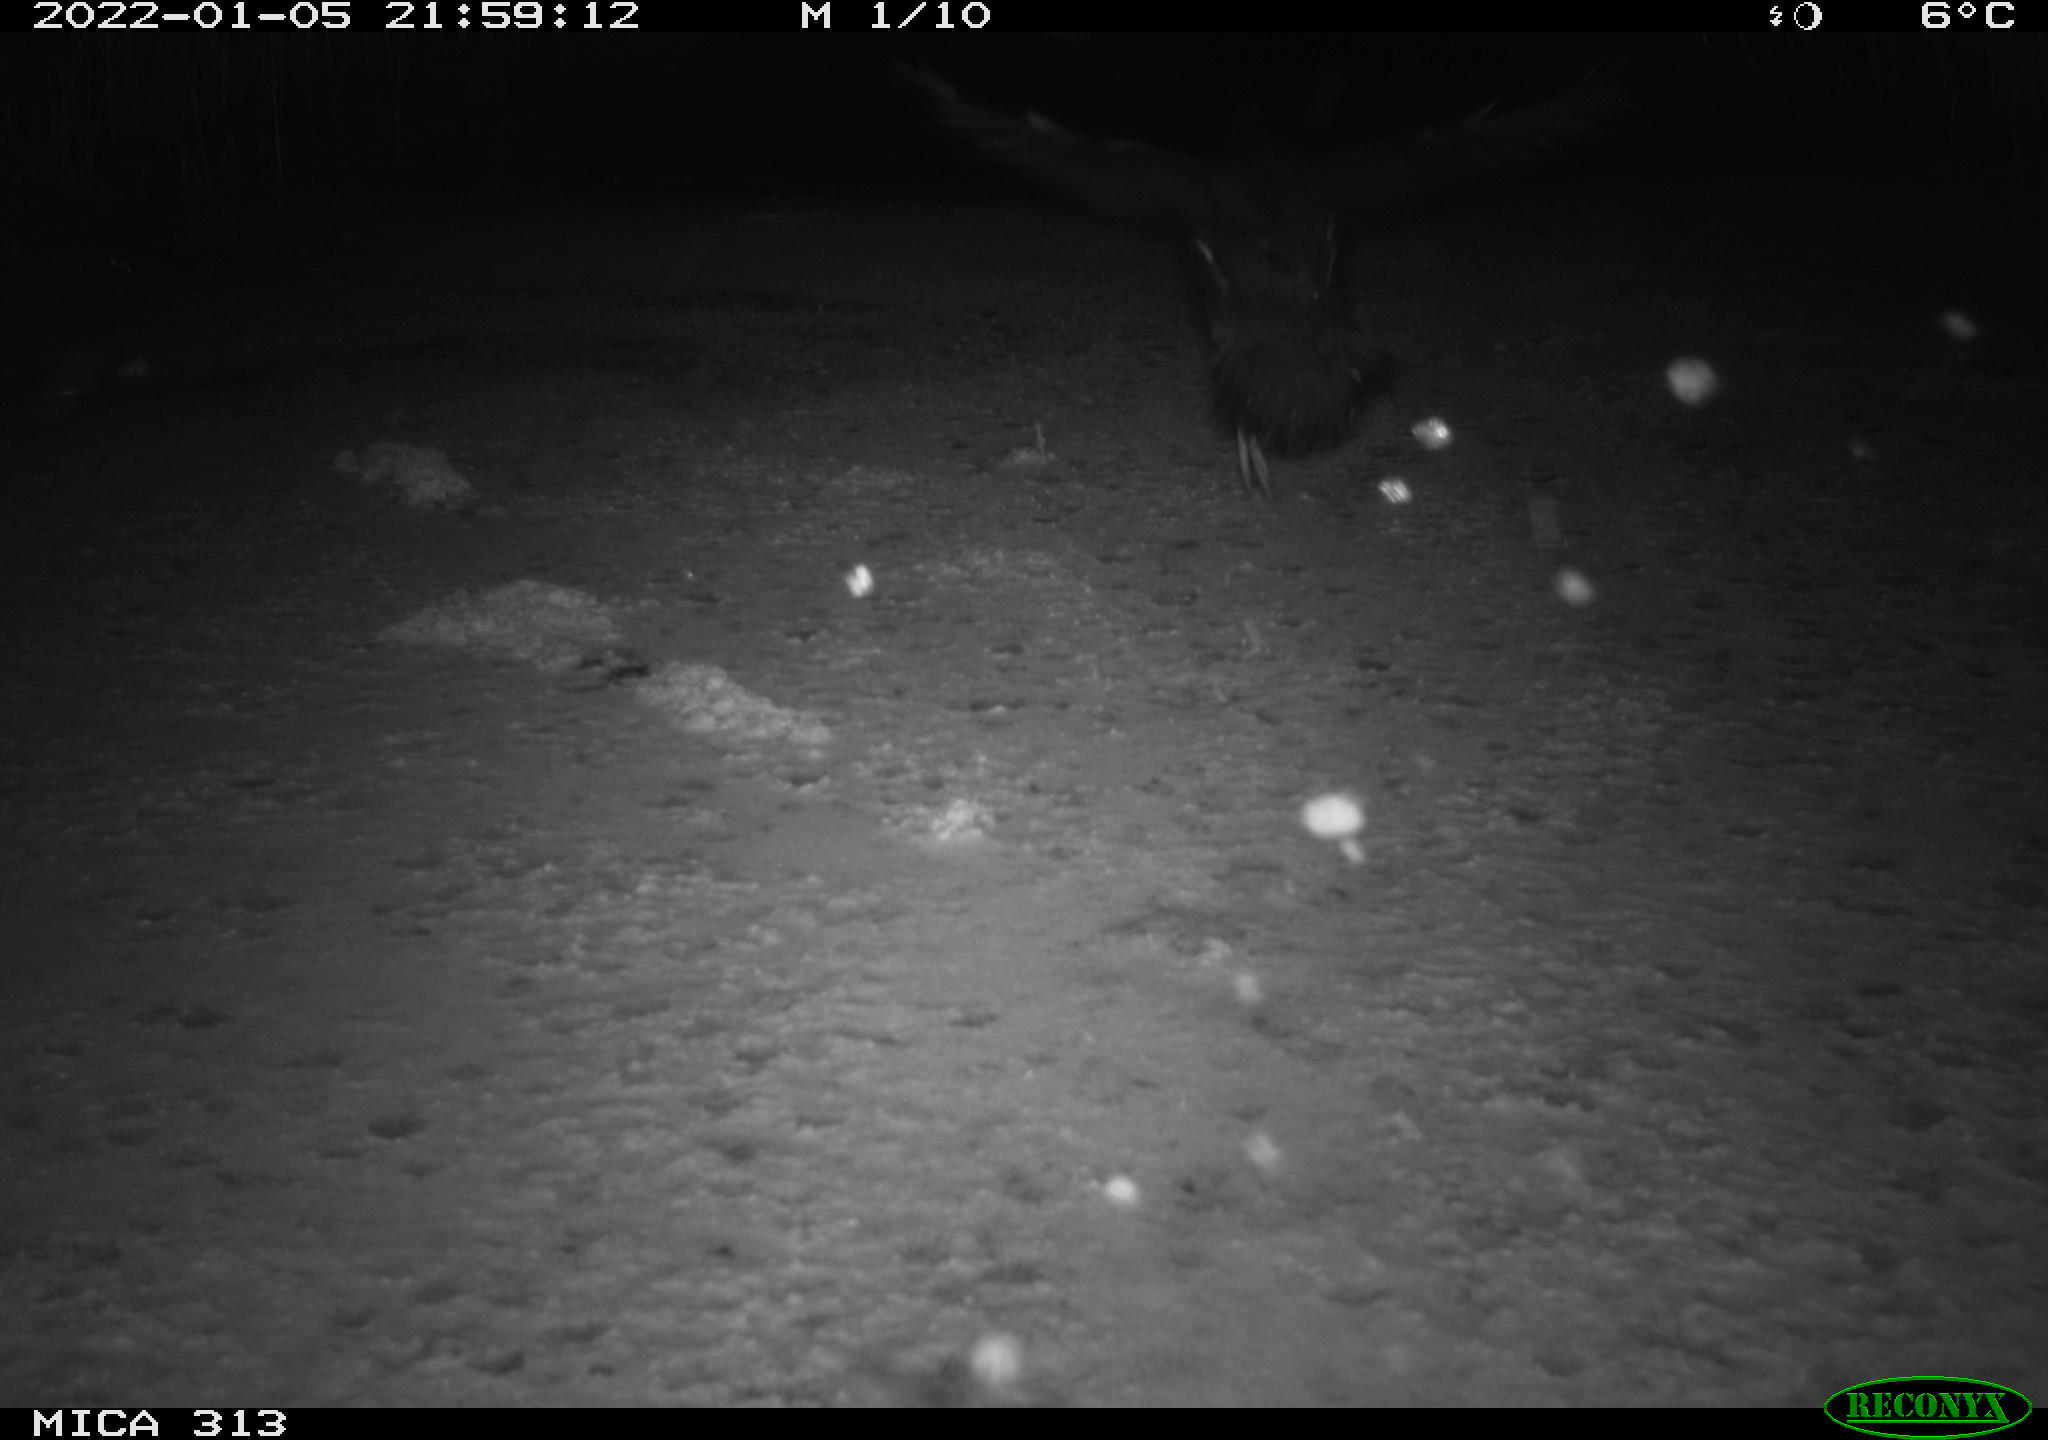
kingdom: Animalia
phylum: Chordata
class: Aves
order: Gruiformes
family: Rallidae
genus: Gallinula
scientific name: Gallinula chloropus
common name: Common moorhen
